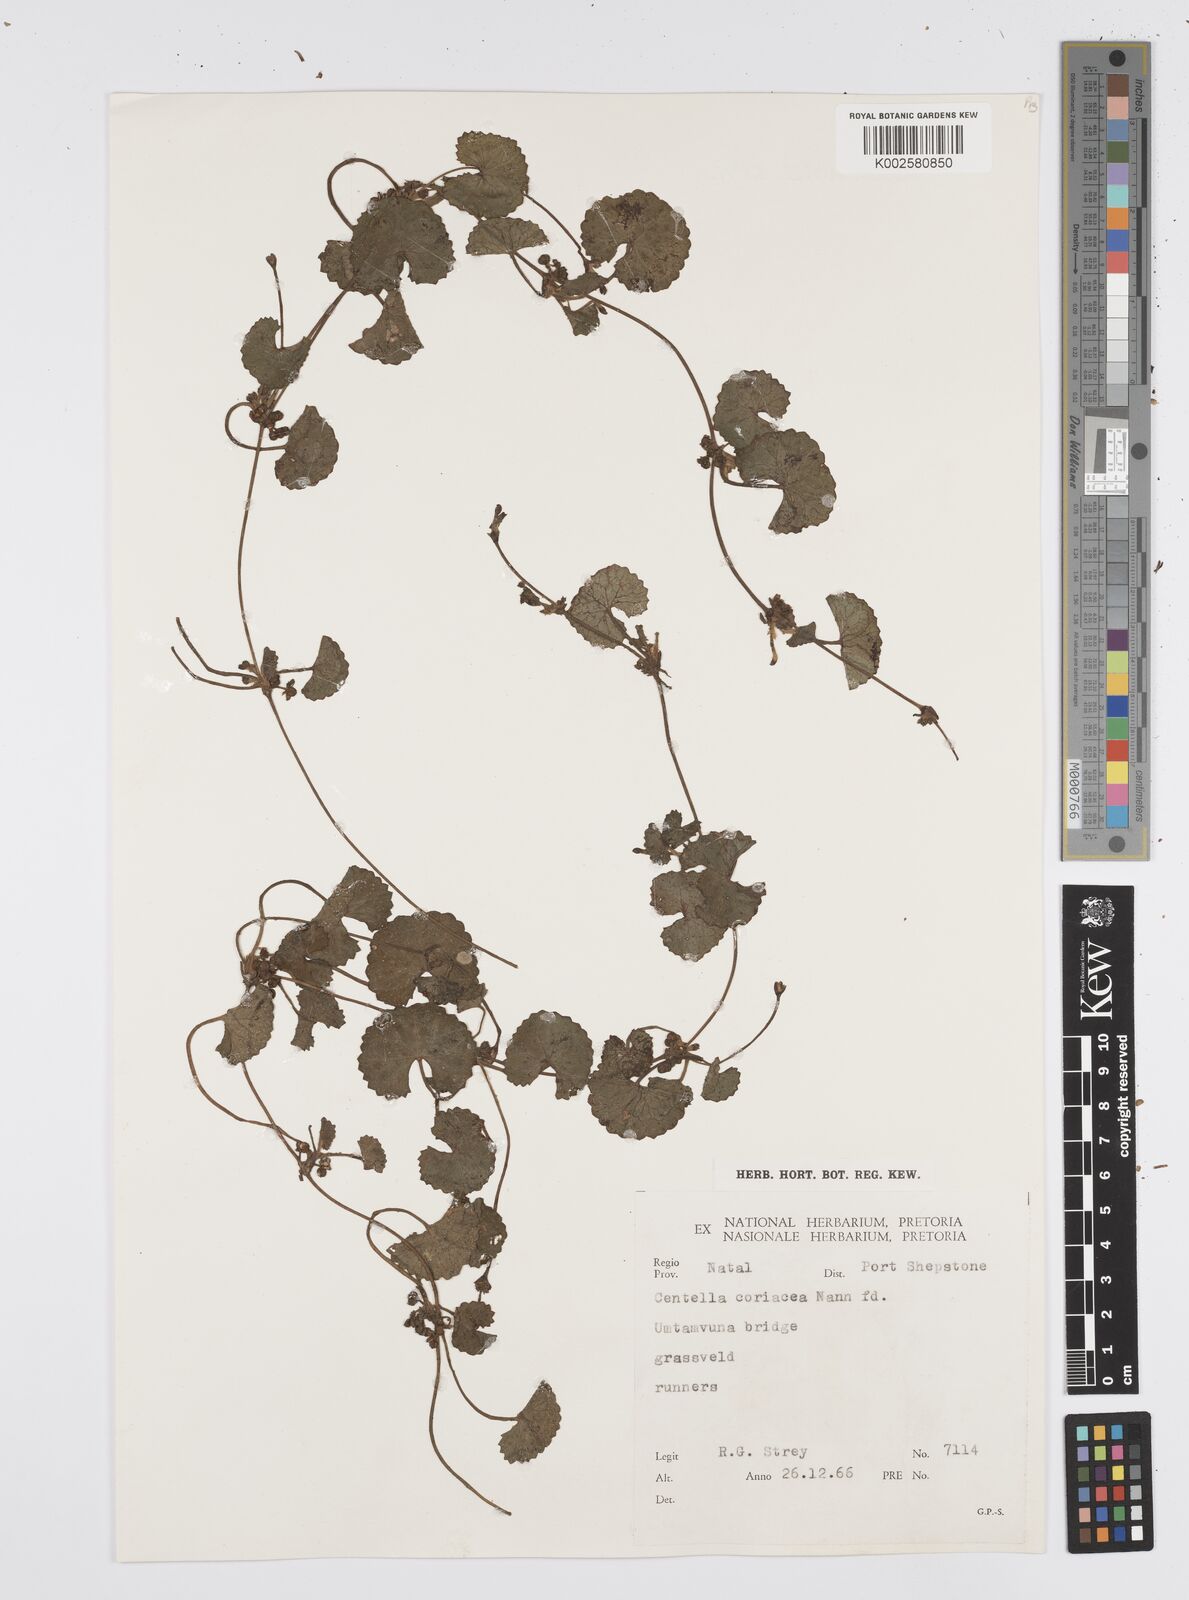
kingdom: Plantae
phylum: Tracheophyta
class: Magnoliopsida
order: Apiales
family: Apiaceae
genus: Centella
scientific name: Centella coriacea
